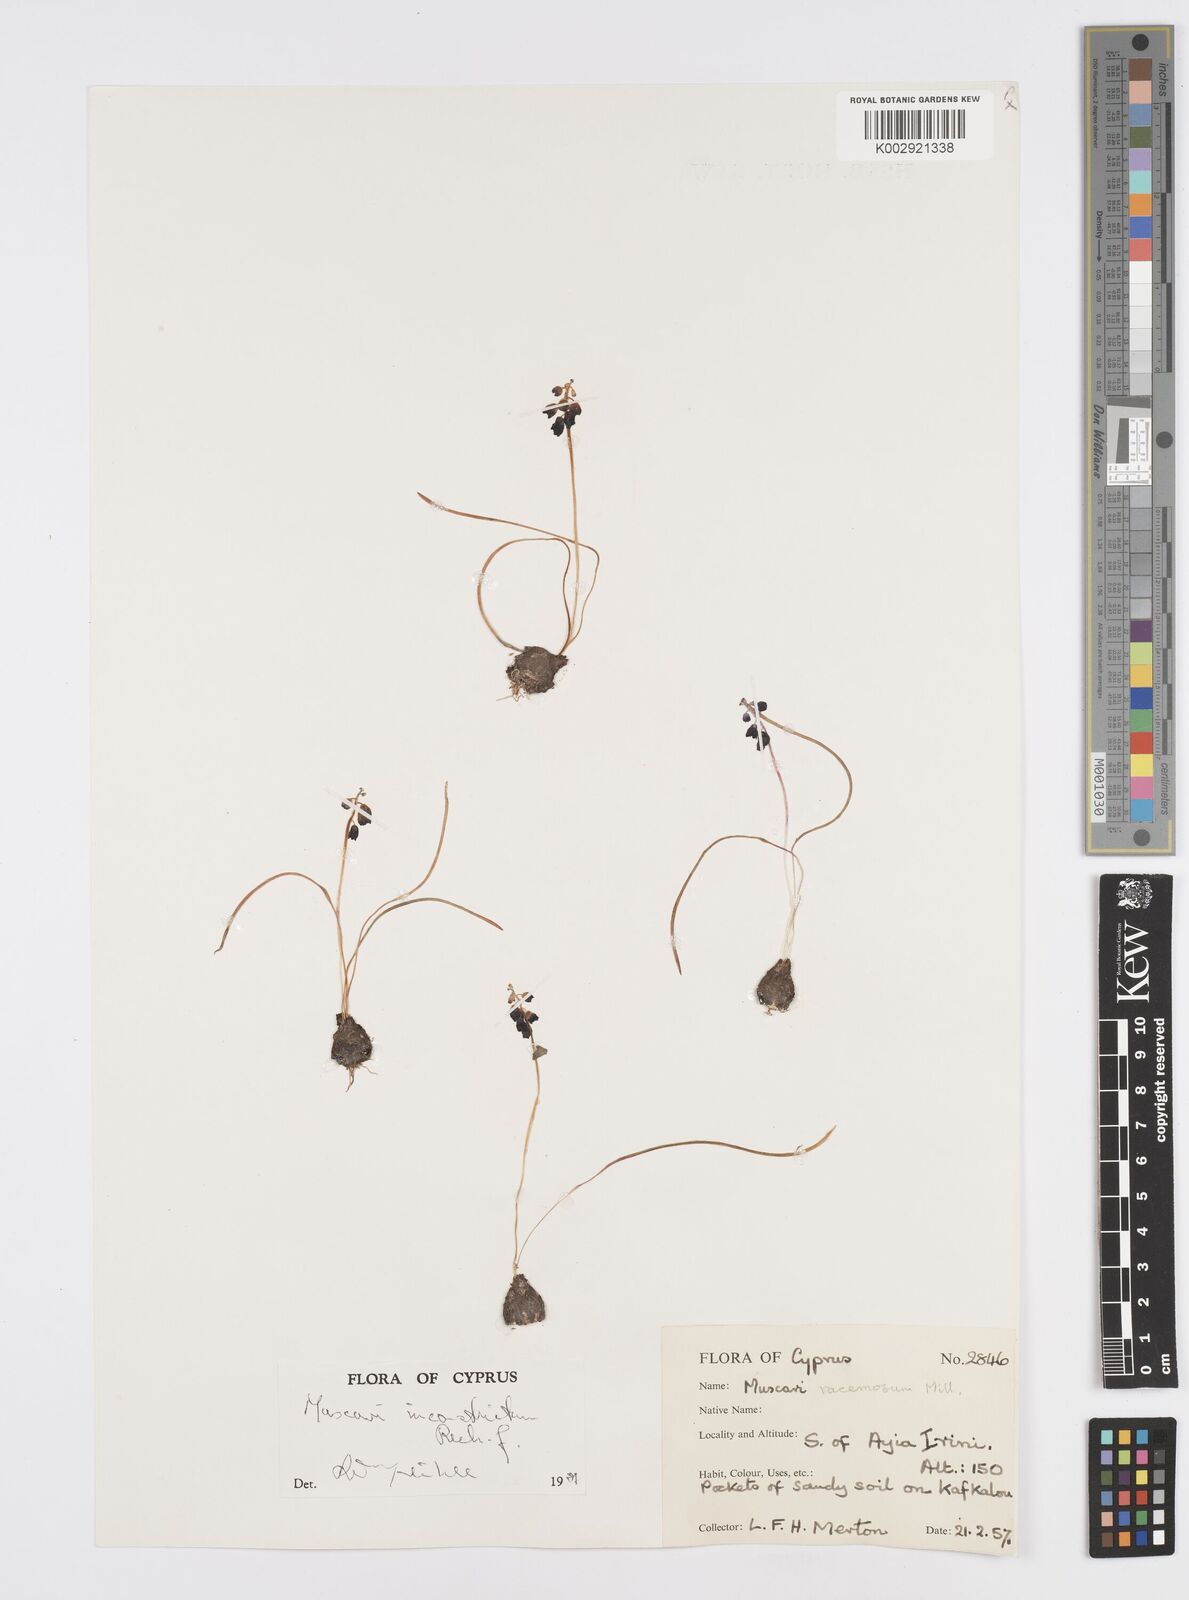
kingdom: Plantae
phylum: Tracheophyta
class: Liliopsida
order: Asparagales
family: Asparagaceae
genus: Muscari
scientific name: Muscari inconstrictum
